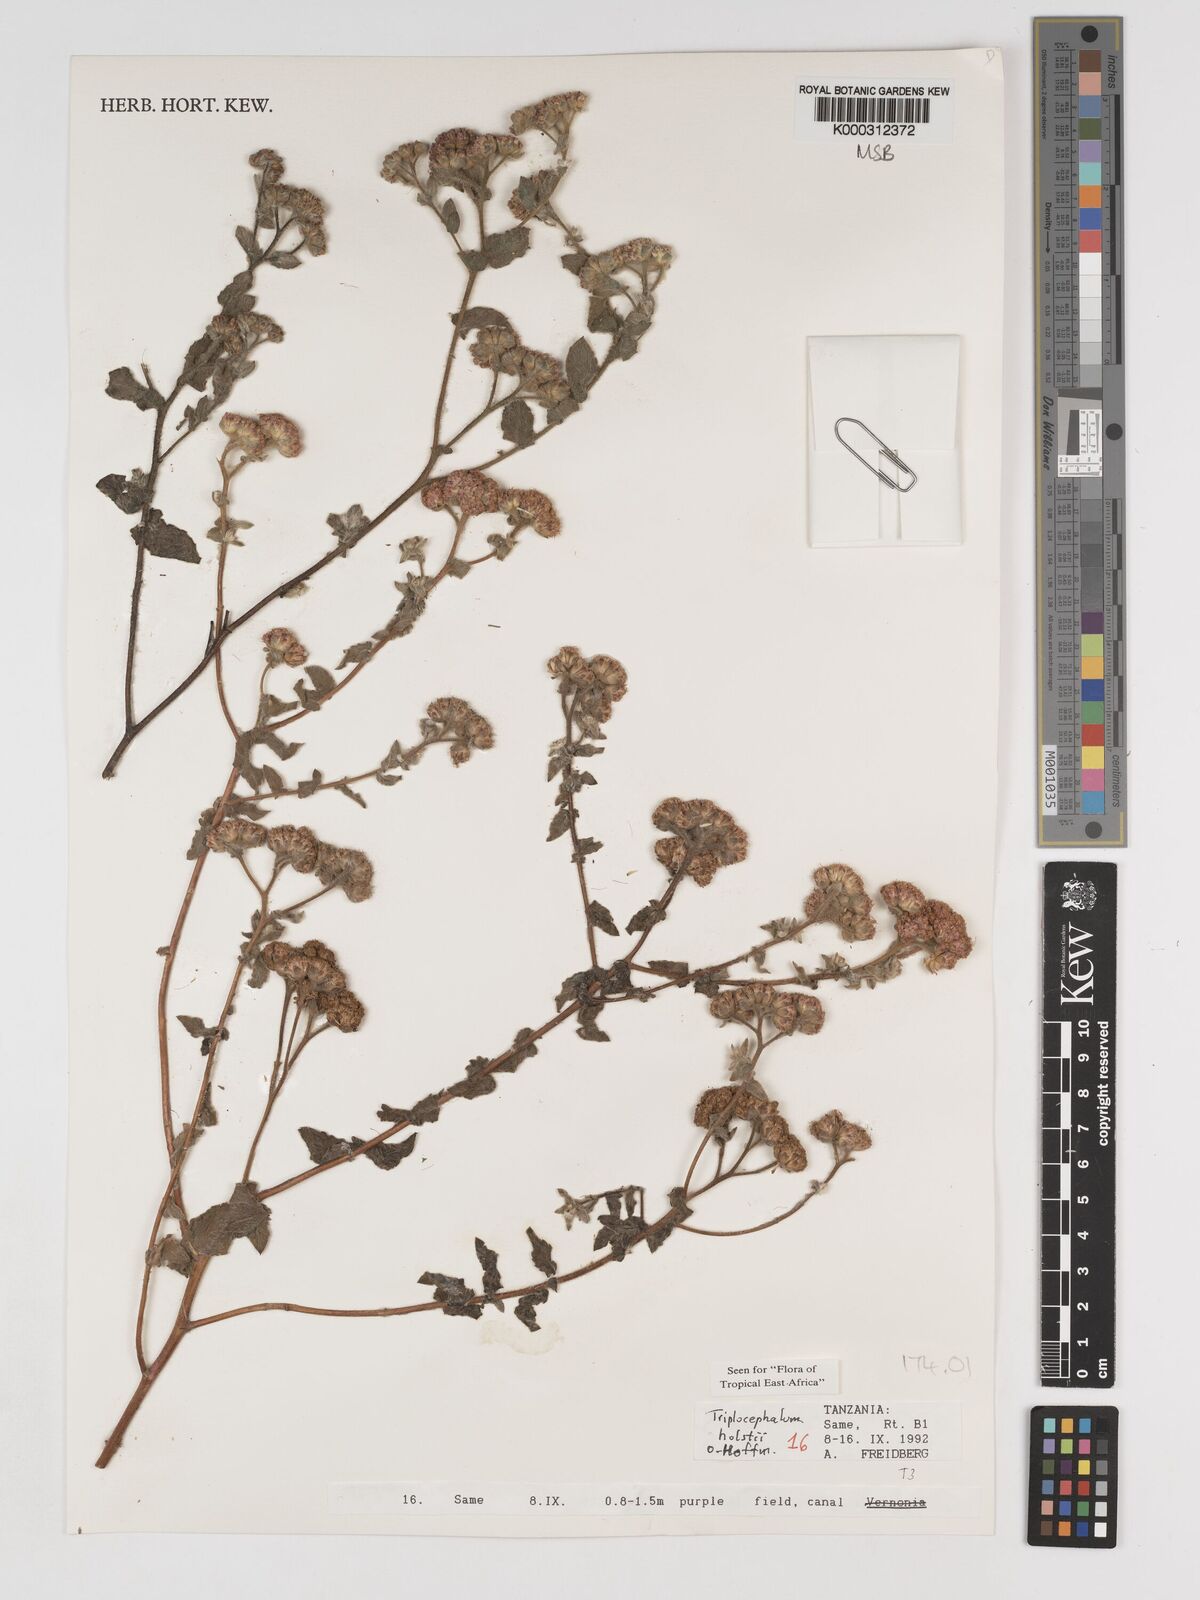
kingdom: Plantae
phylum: Tracheophyta
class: Magnoliopsida
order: Asterales
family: Asteraceae
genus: Triplocephalum
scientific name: Triplocephalum holstii
